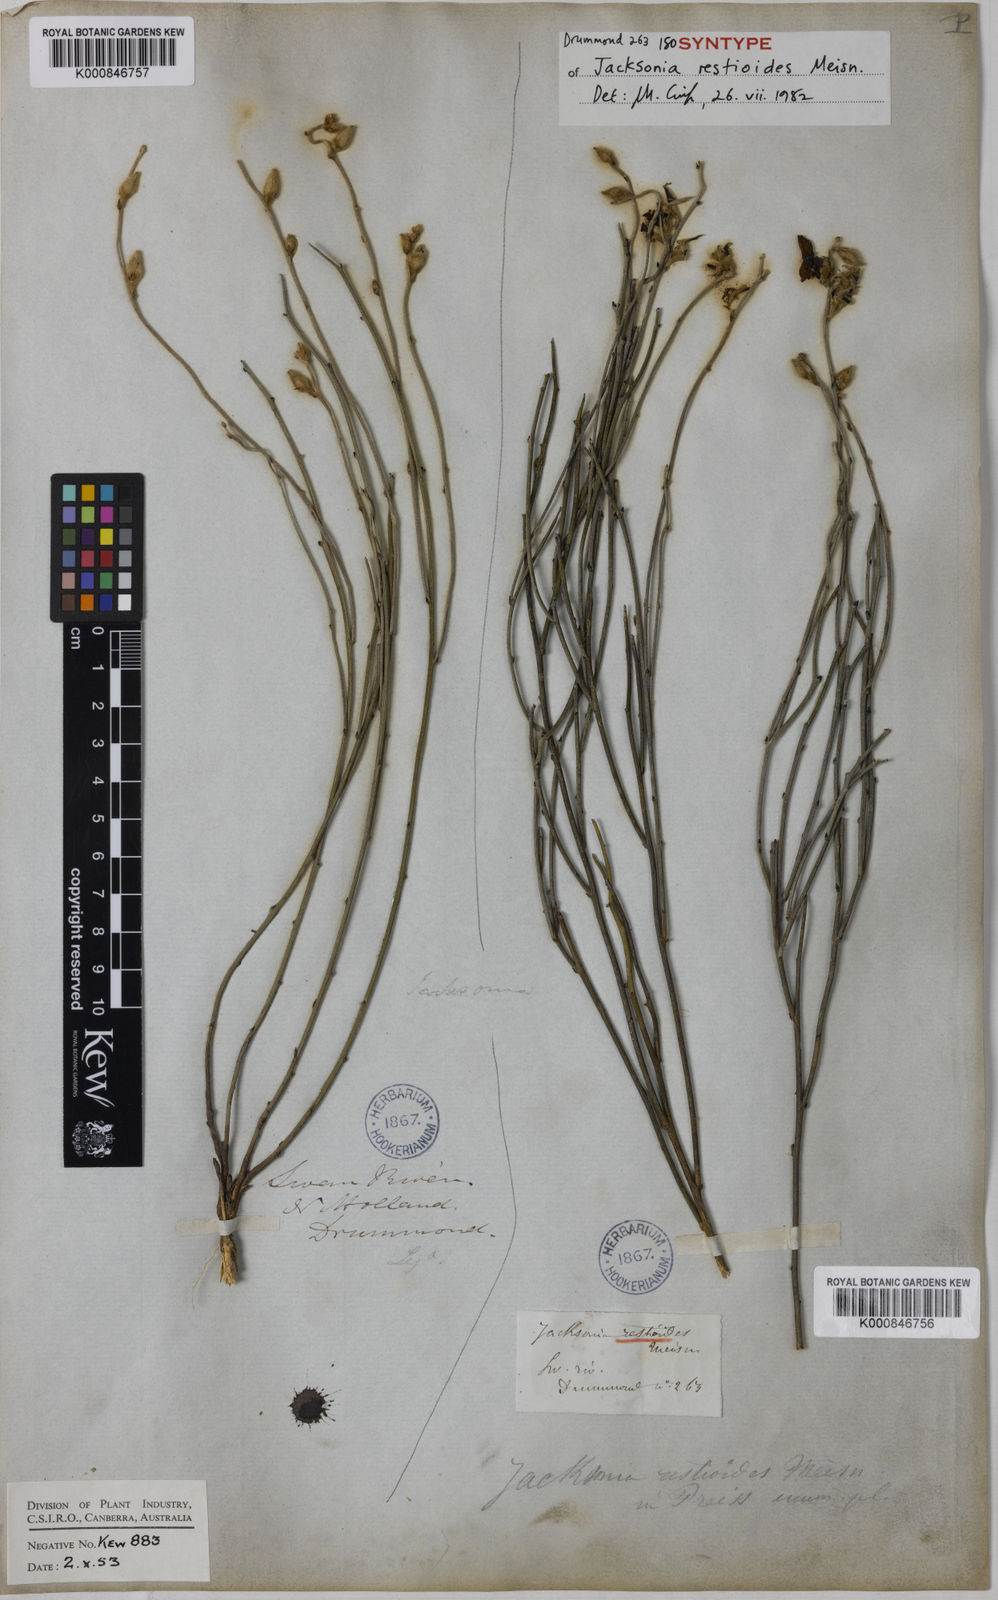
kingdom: Plantae
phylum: Tracheophyta
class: Magnoliopsida
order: Fabales
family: Fabaceae
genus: Jacksonia
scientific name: Jacksonia restioides
